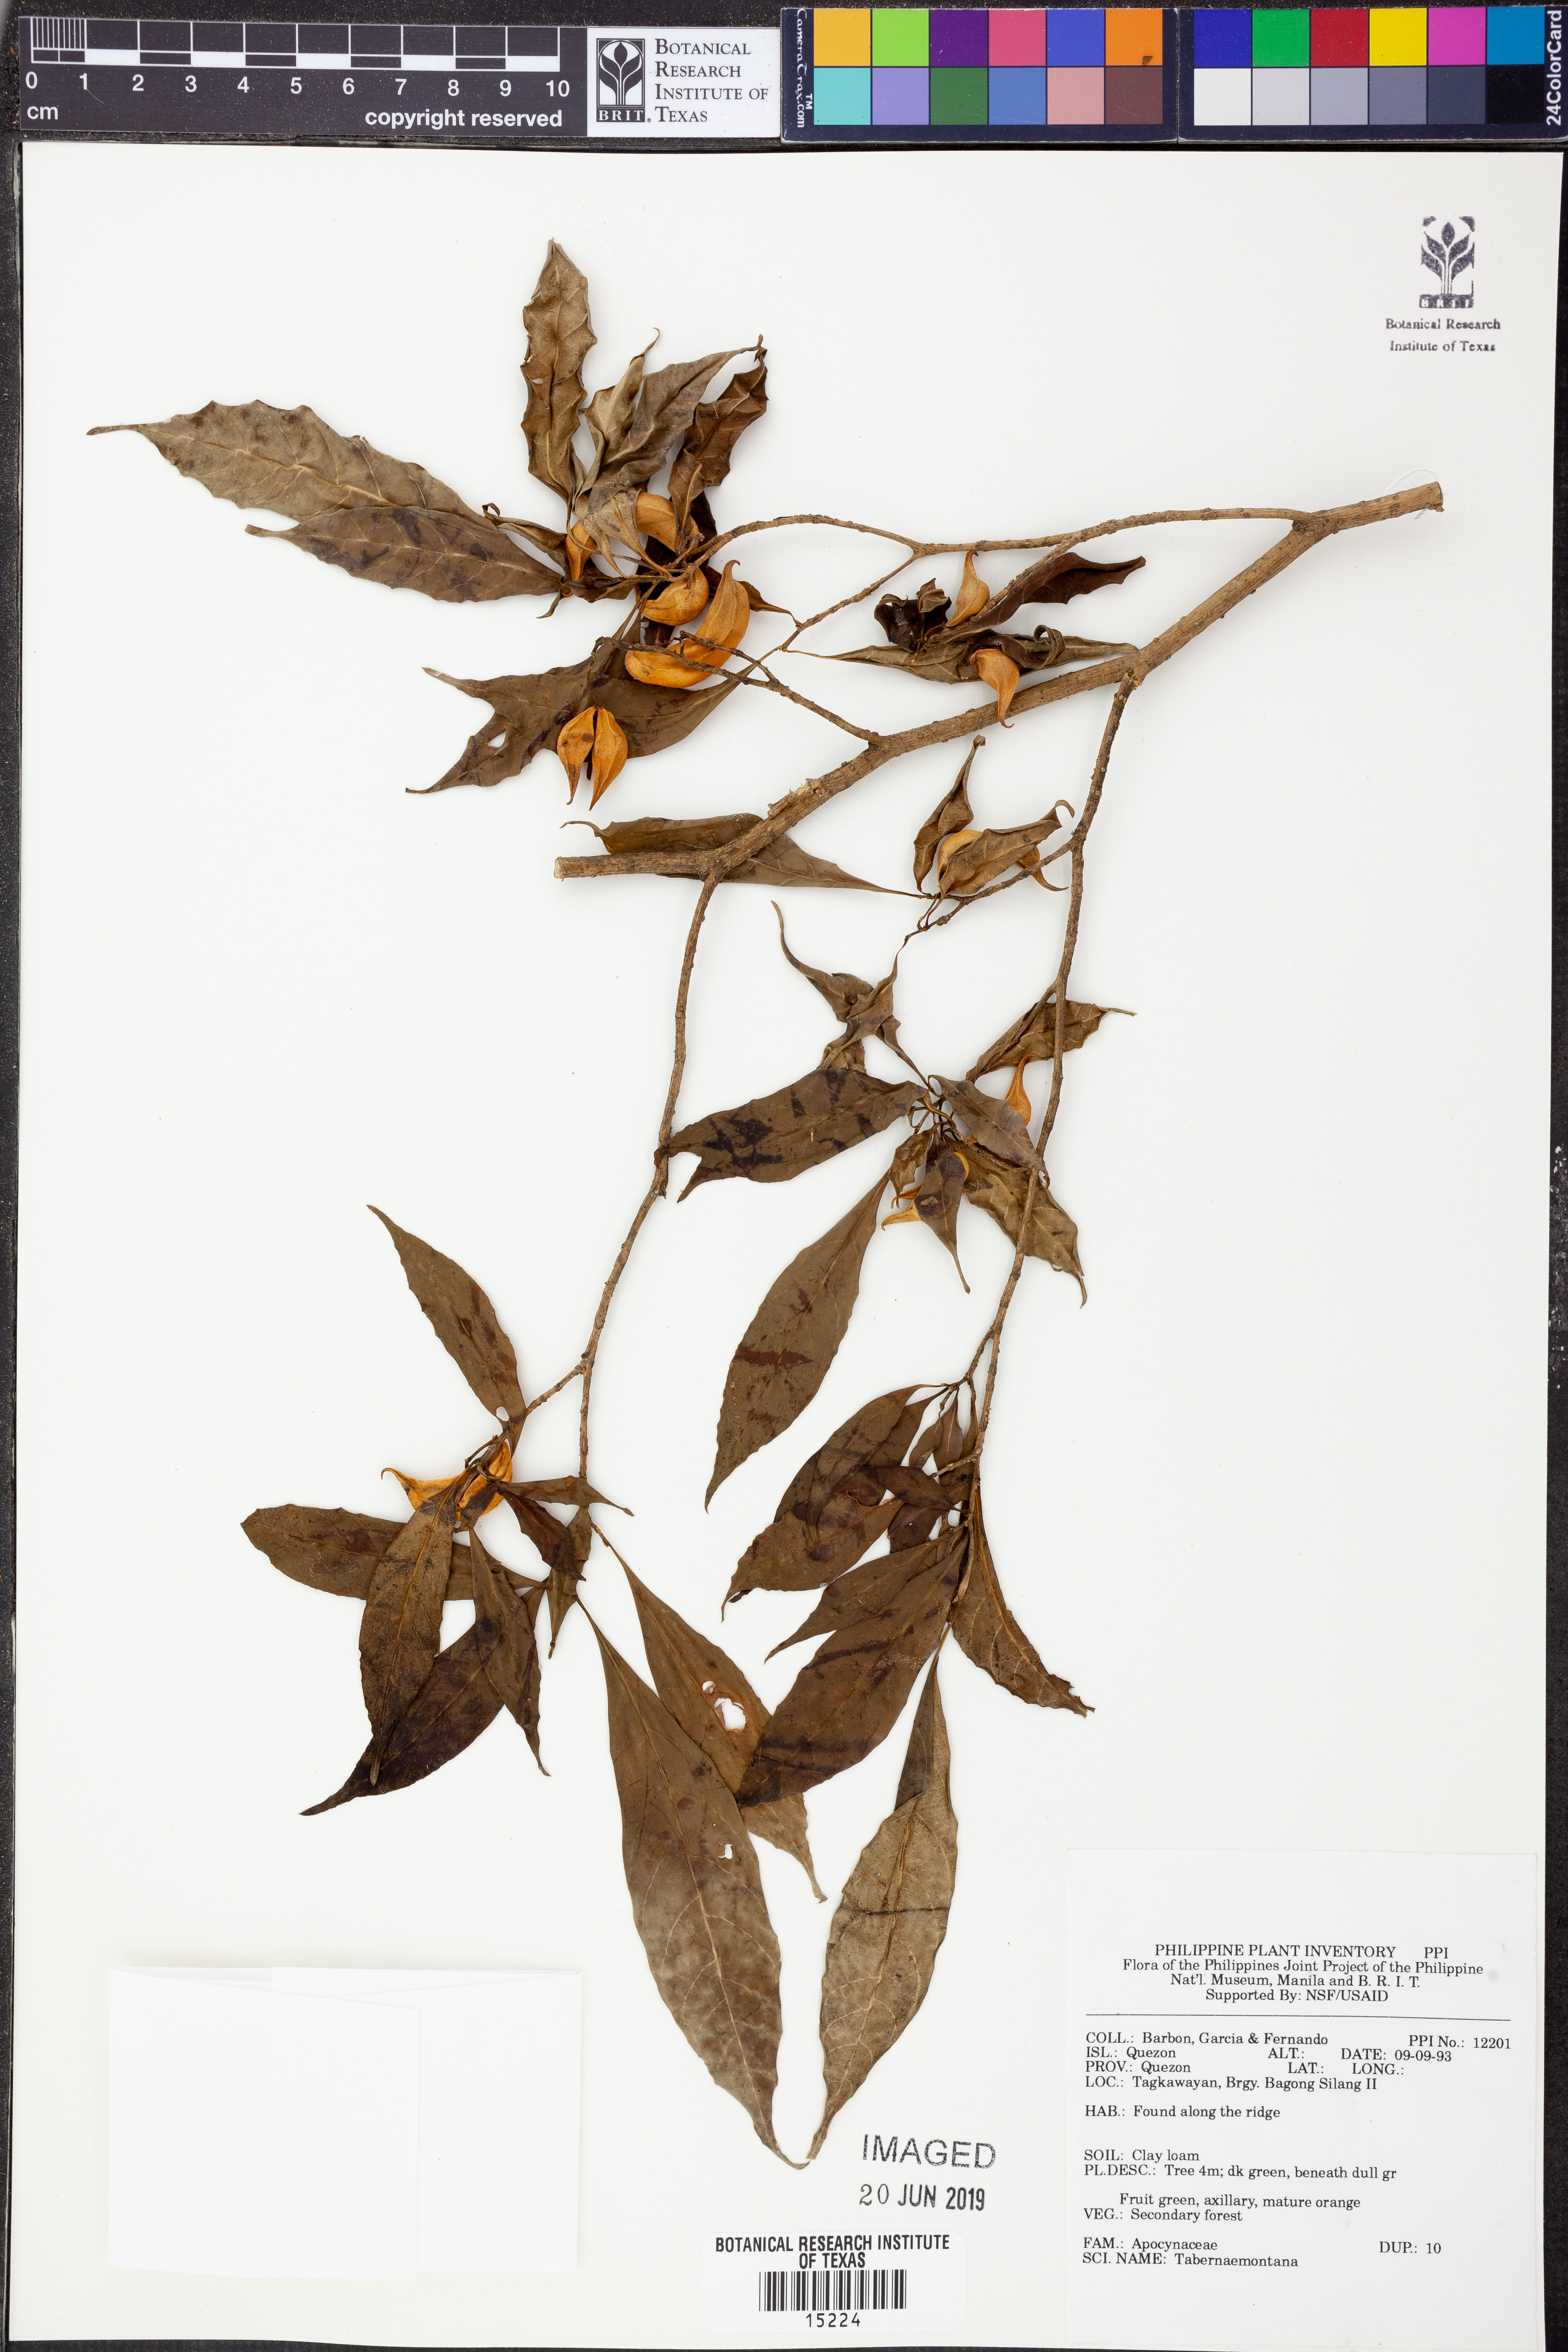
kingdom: Plantae
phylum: Tracheophyta
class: Magnoliopsida
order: Gentianales
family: Apocynaceae
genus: Tabernaemontana
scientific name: Tabernaemontana
